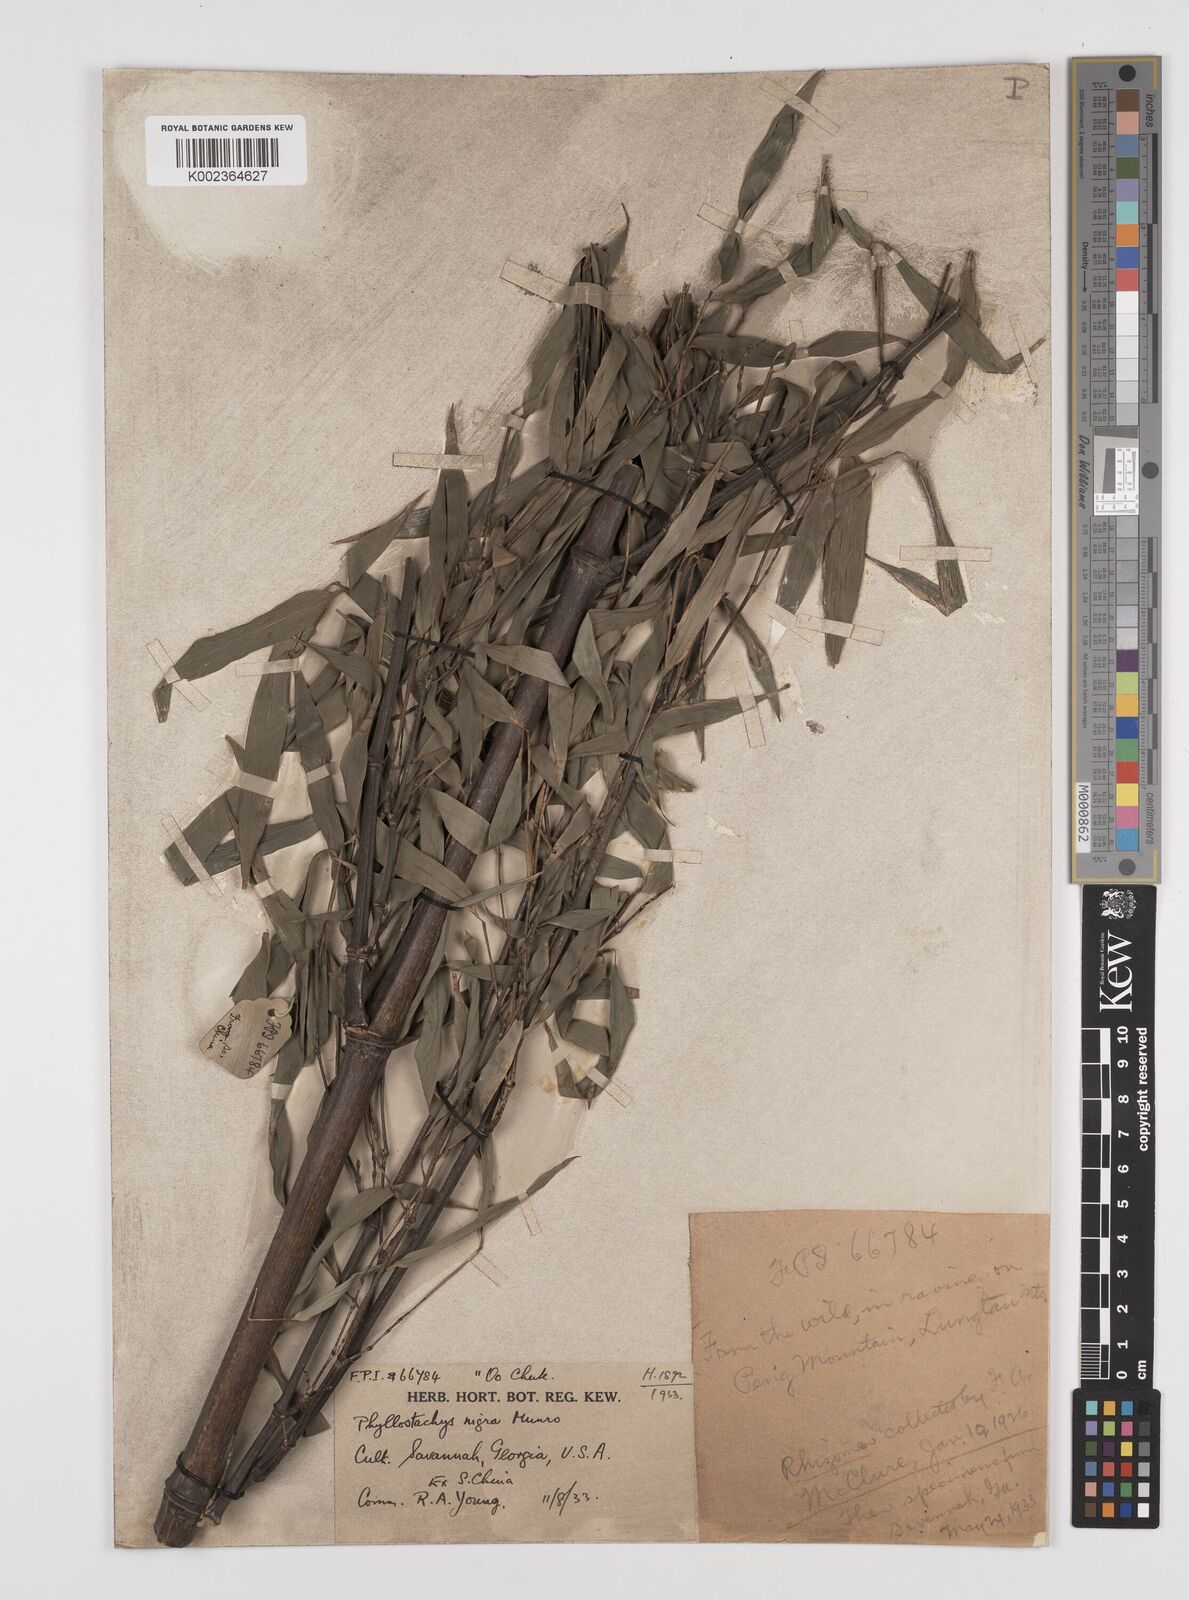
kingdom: Plantae
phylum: Tracheophyta
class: Liliopsida
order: Poales
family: Poaceae
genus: Phyllostachys
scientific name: Phyllostachys nigra
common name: Black bamboo
